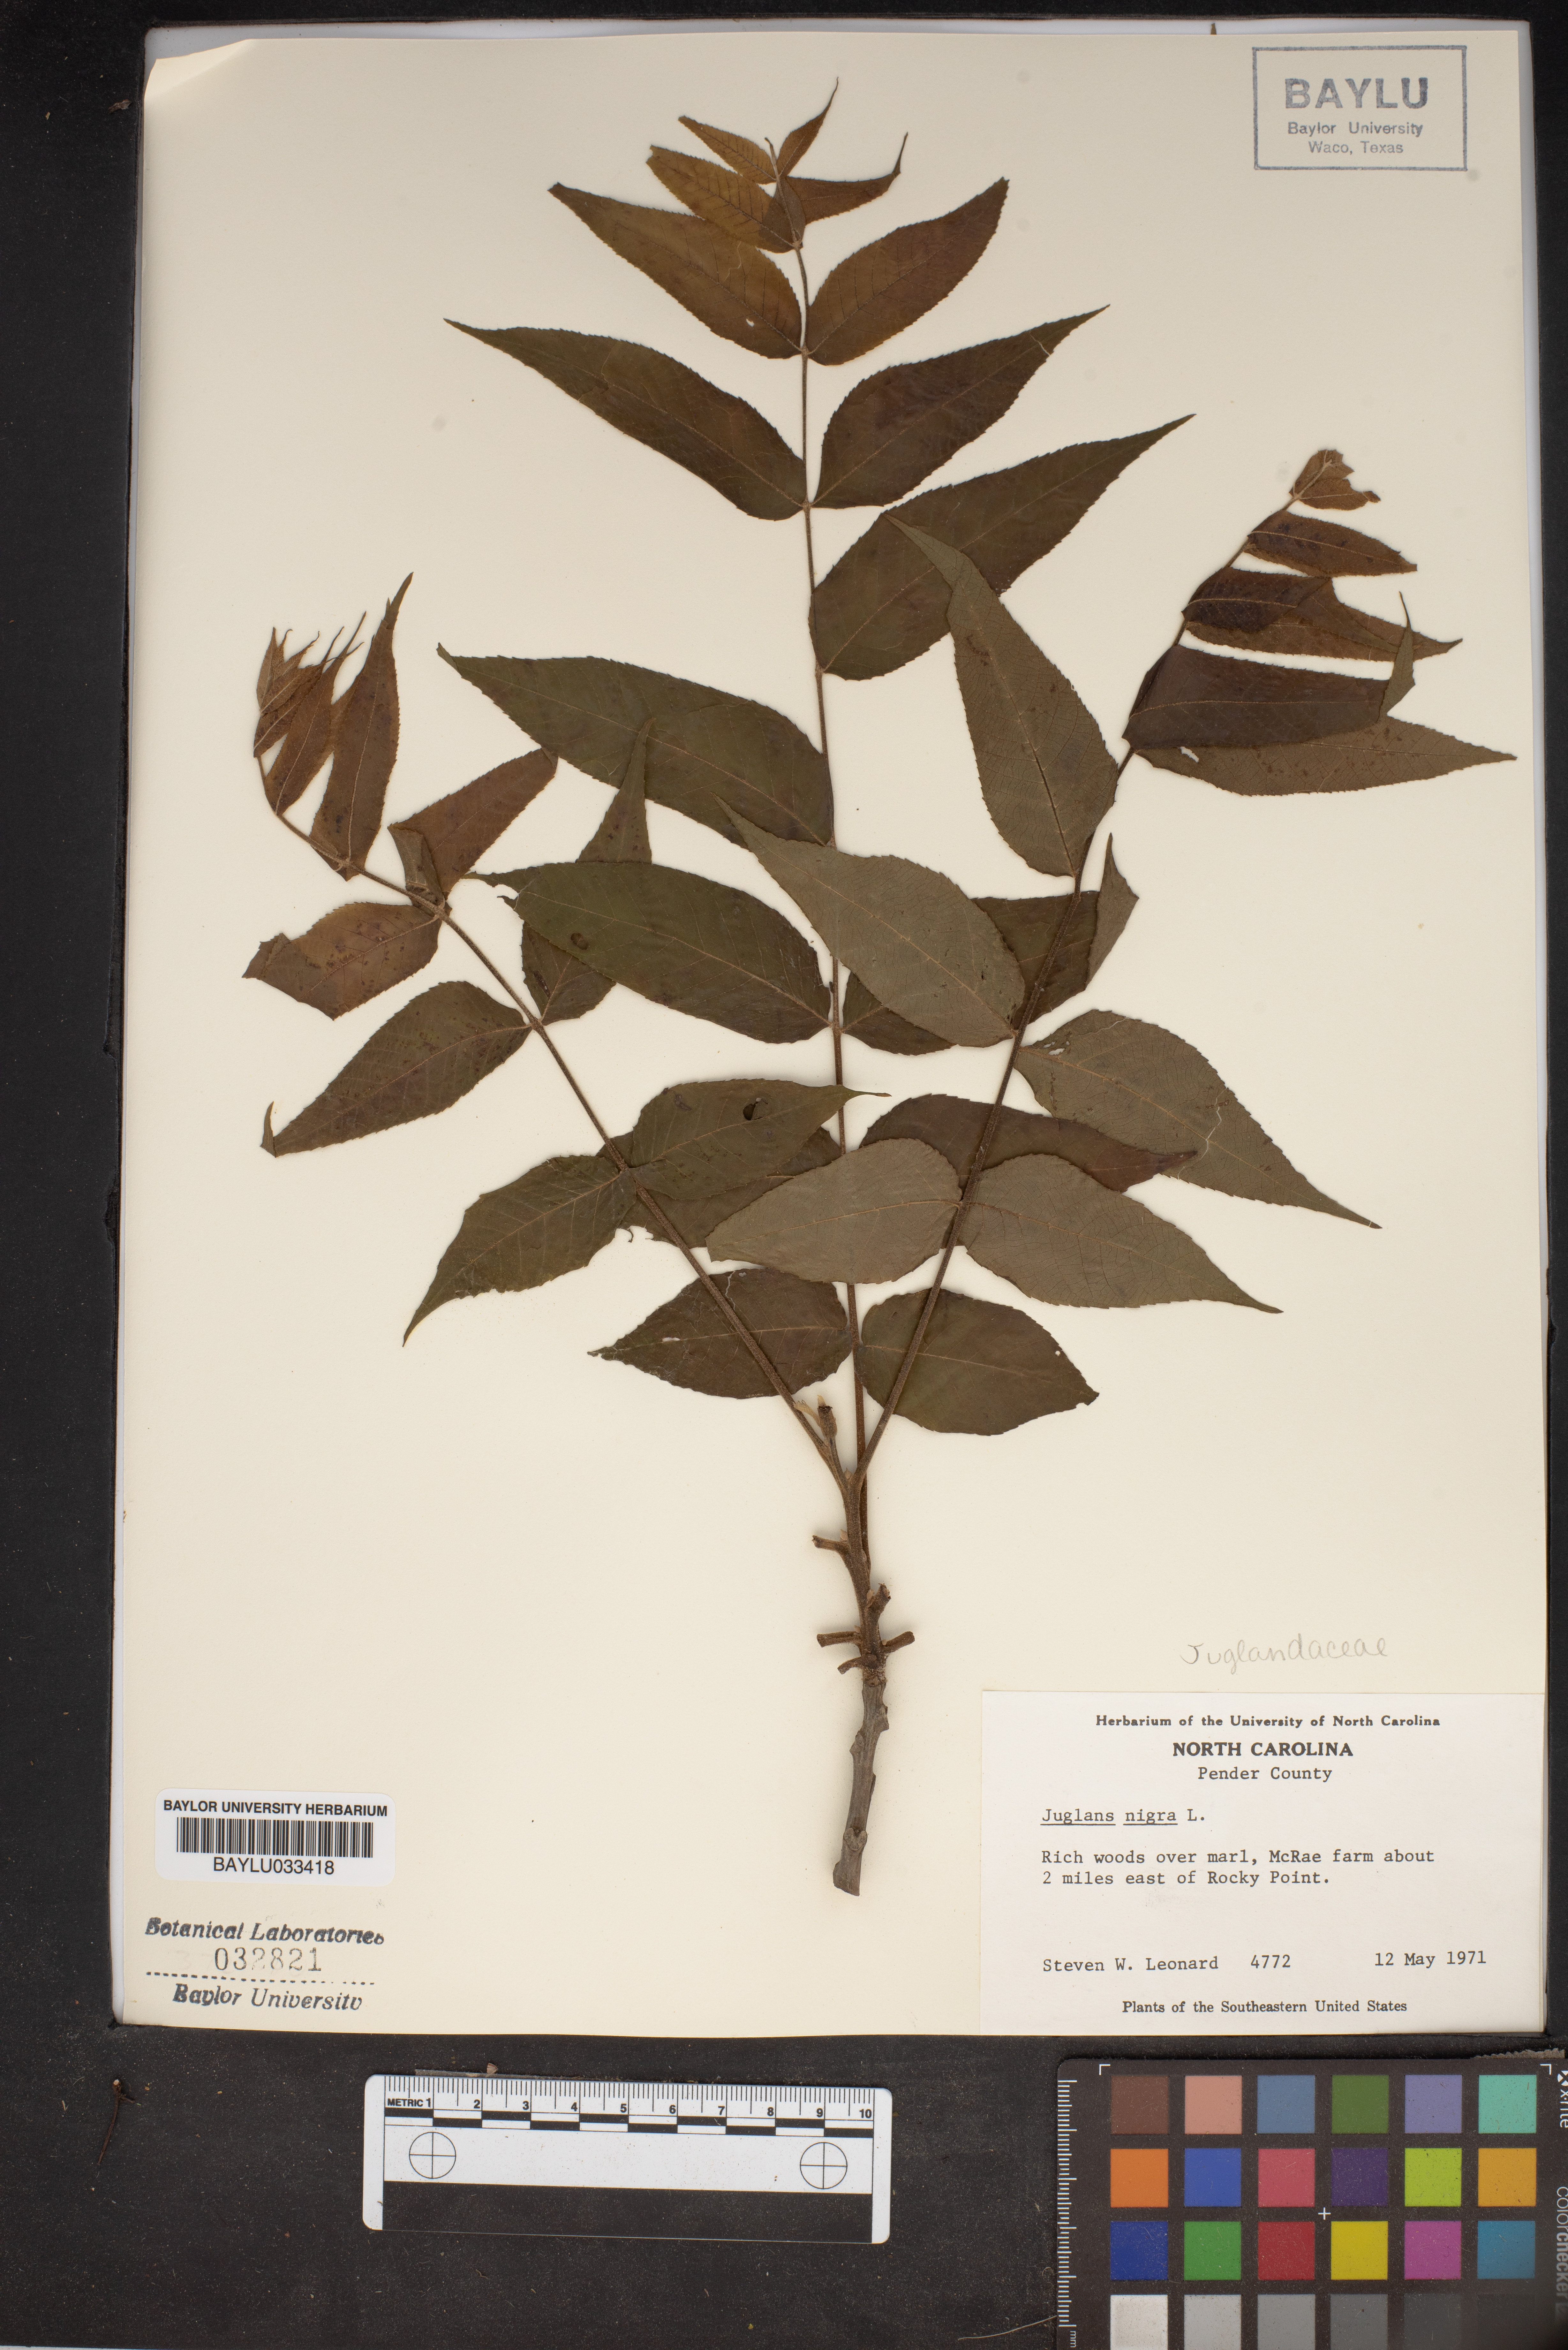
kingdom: Plantae
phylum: Tracheophyta
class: Magnoliopsida
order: Fagales
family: Juglandaceae
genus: Juglans
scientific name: Juglans nigra
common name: Black walnut
